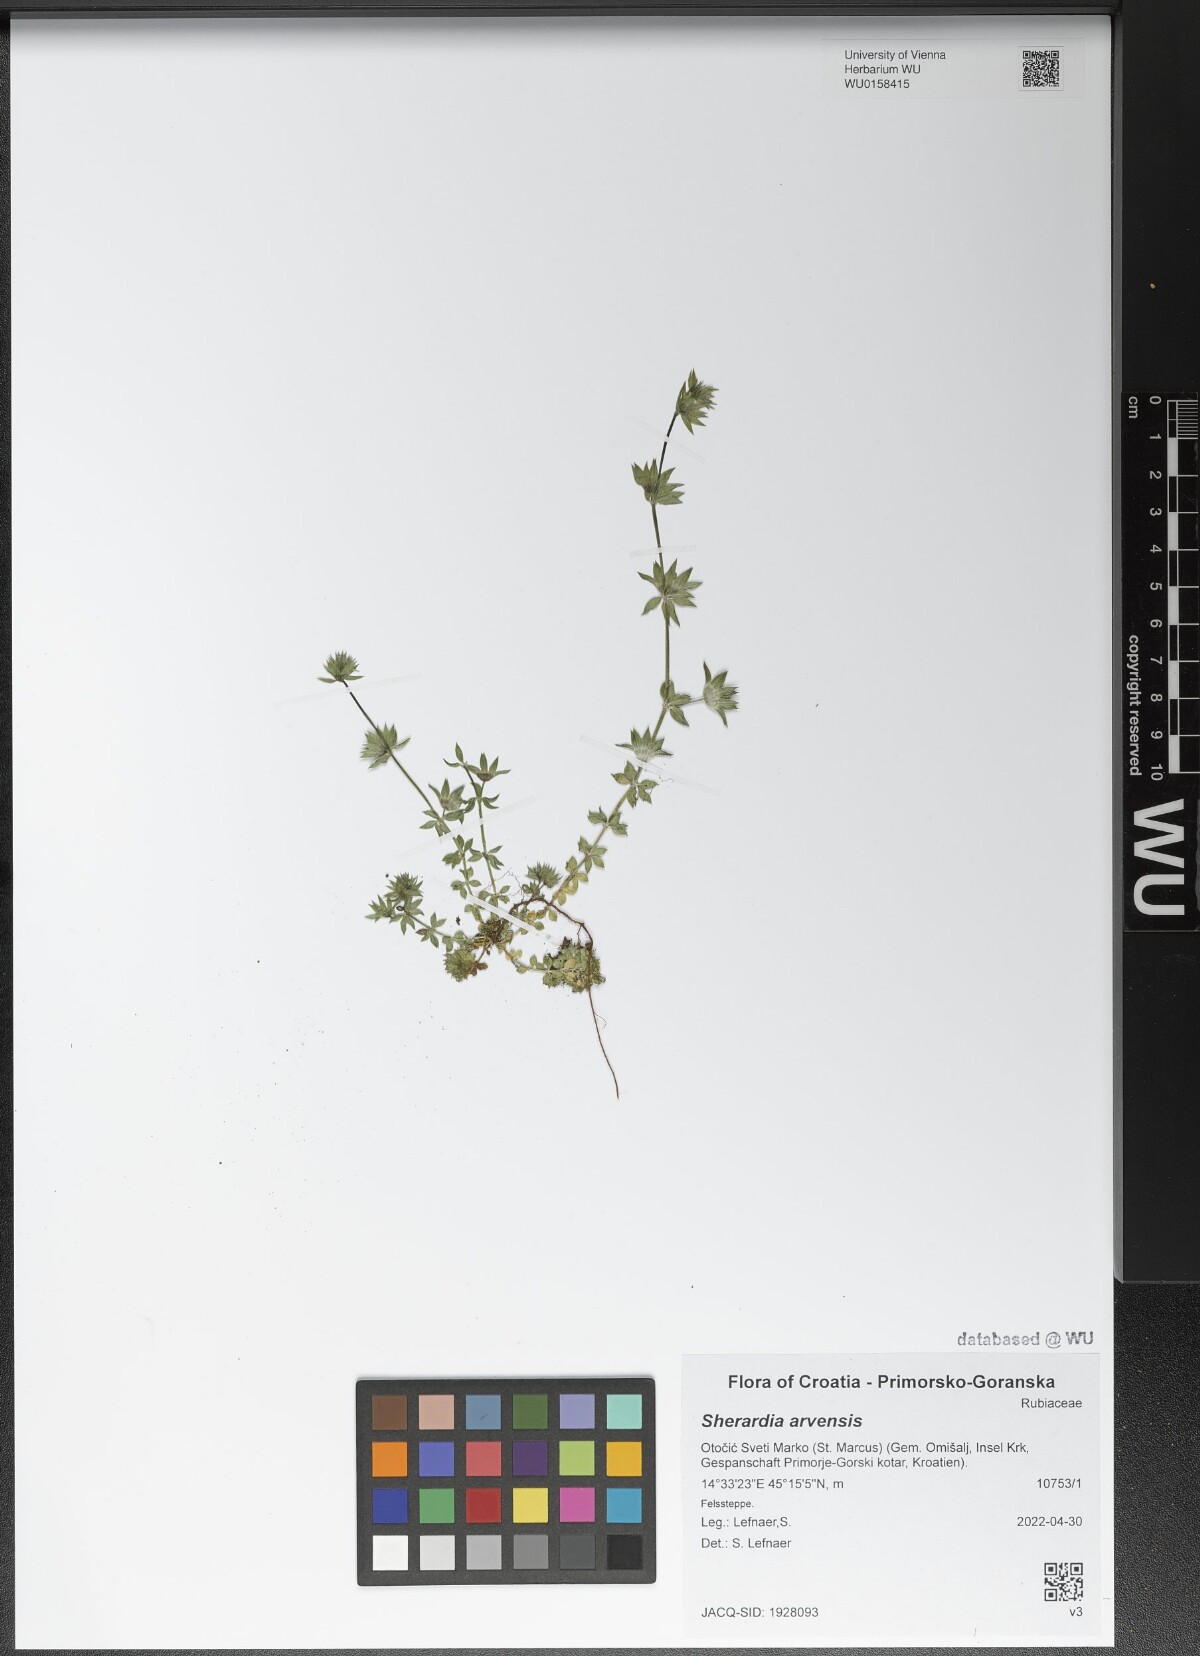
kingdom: Plantae
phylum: Tracheophyta
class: Magnoliopsida
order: Gentianales
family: Rubiaceae
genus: Sherardia
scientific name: Sherardia arvensis
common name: Field madder
